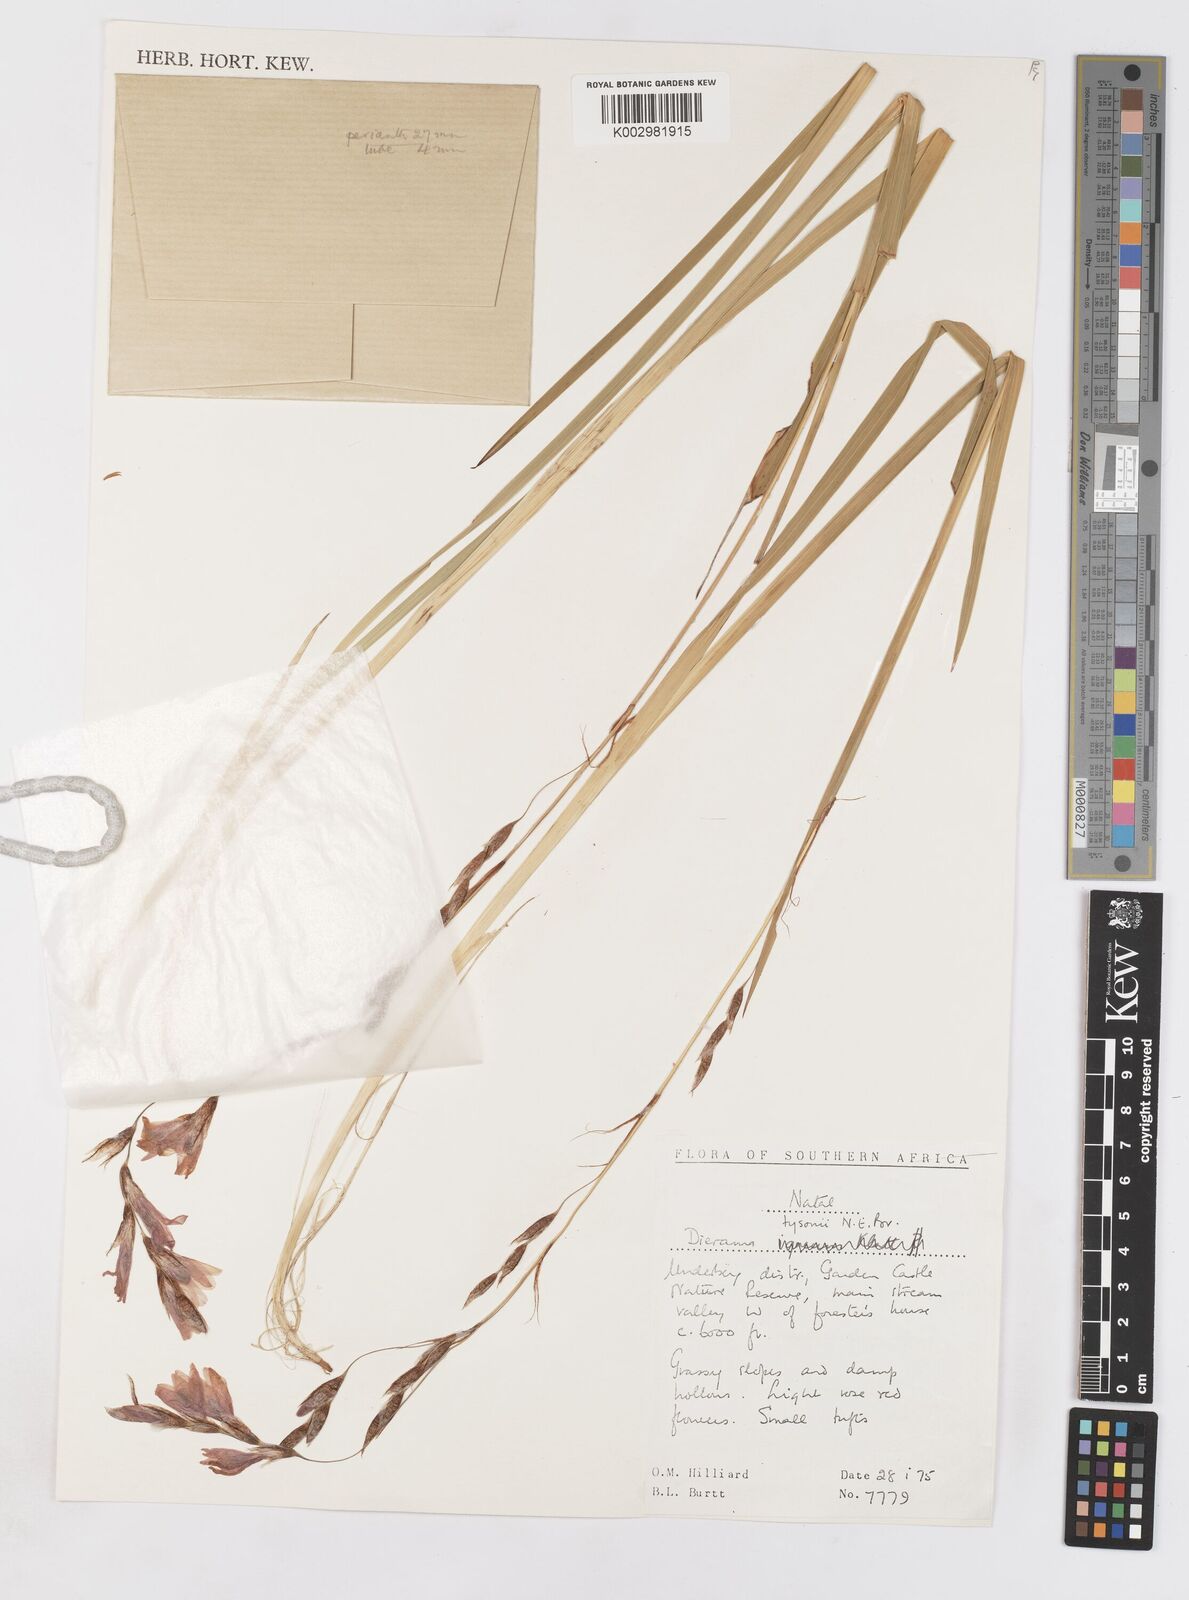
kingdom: Plantae
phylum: Tracheophyta
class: Liliopsida
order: Asparagales
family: Iridaceae
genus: Dierama
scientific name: Dierama tysonii
